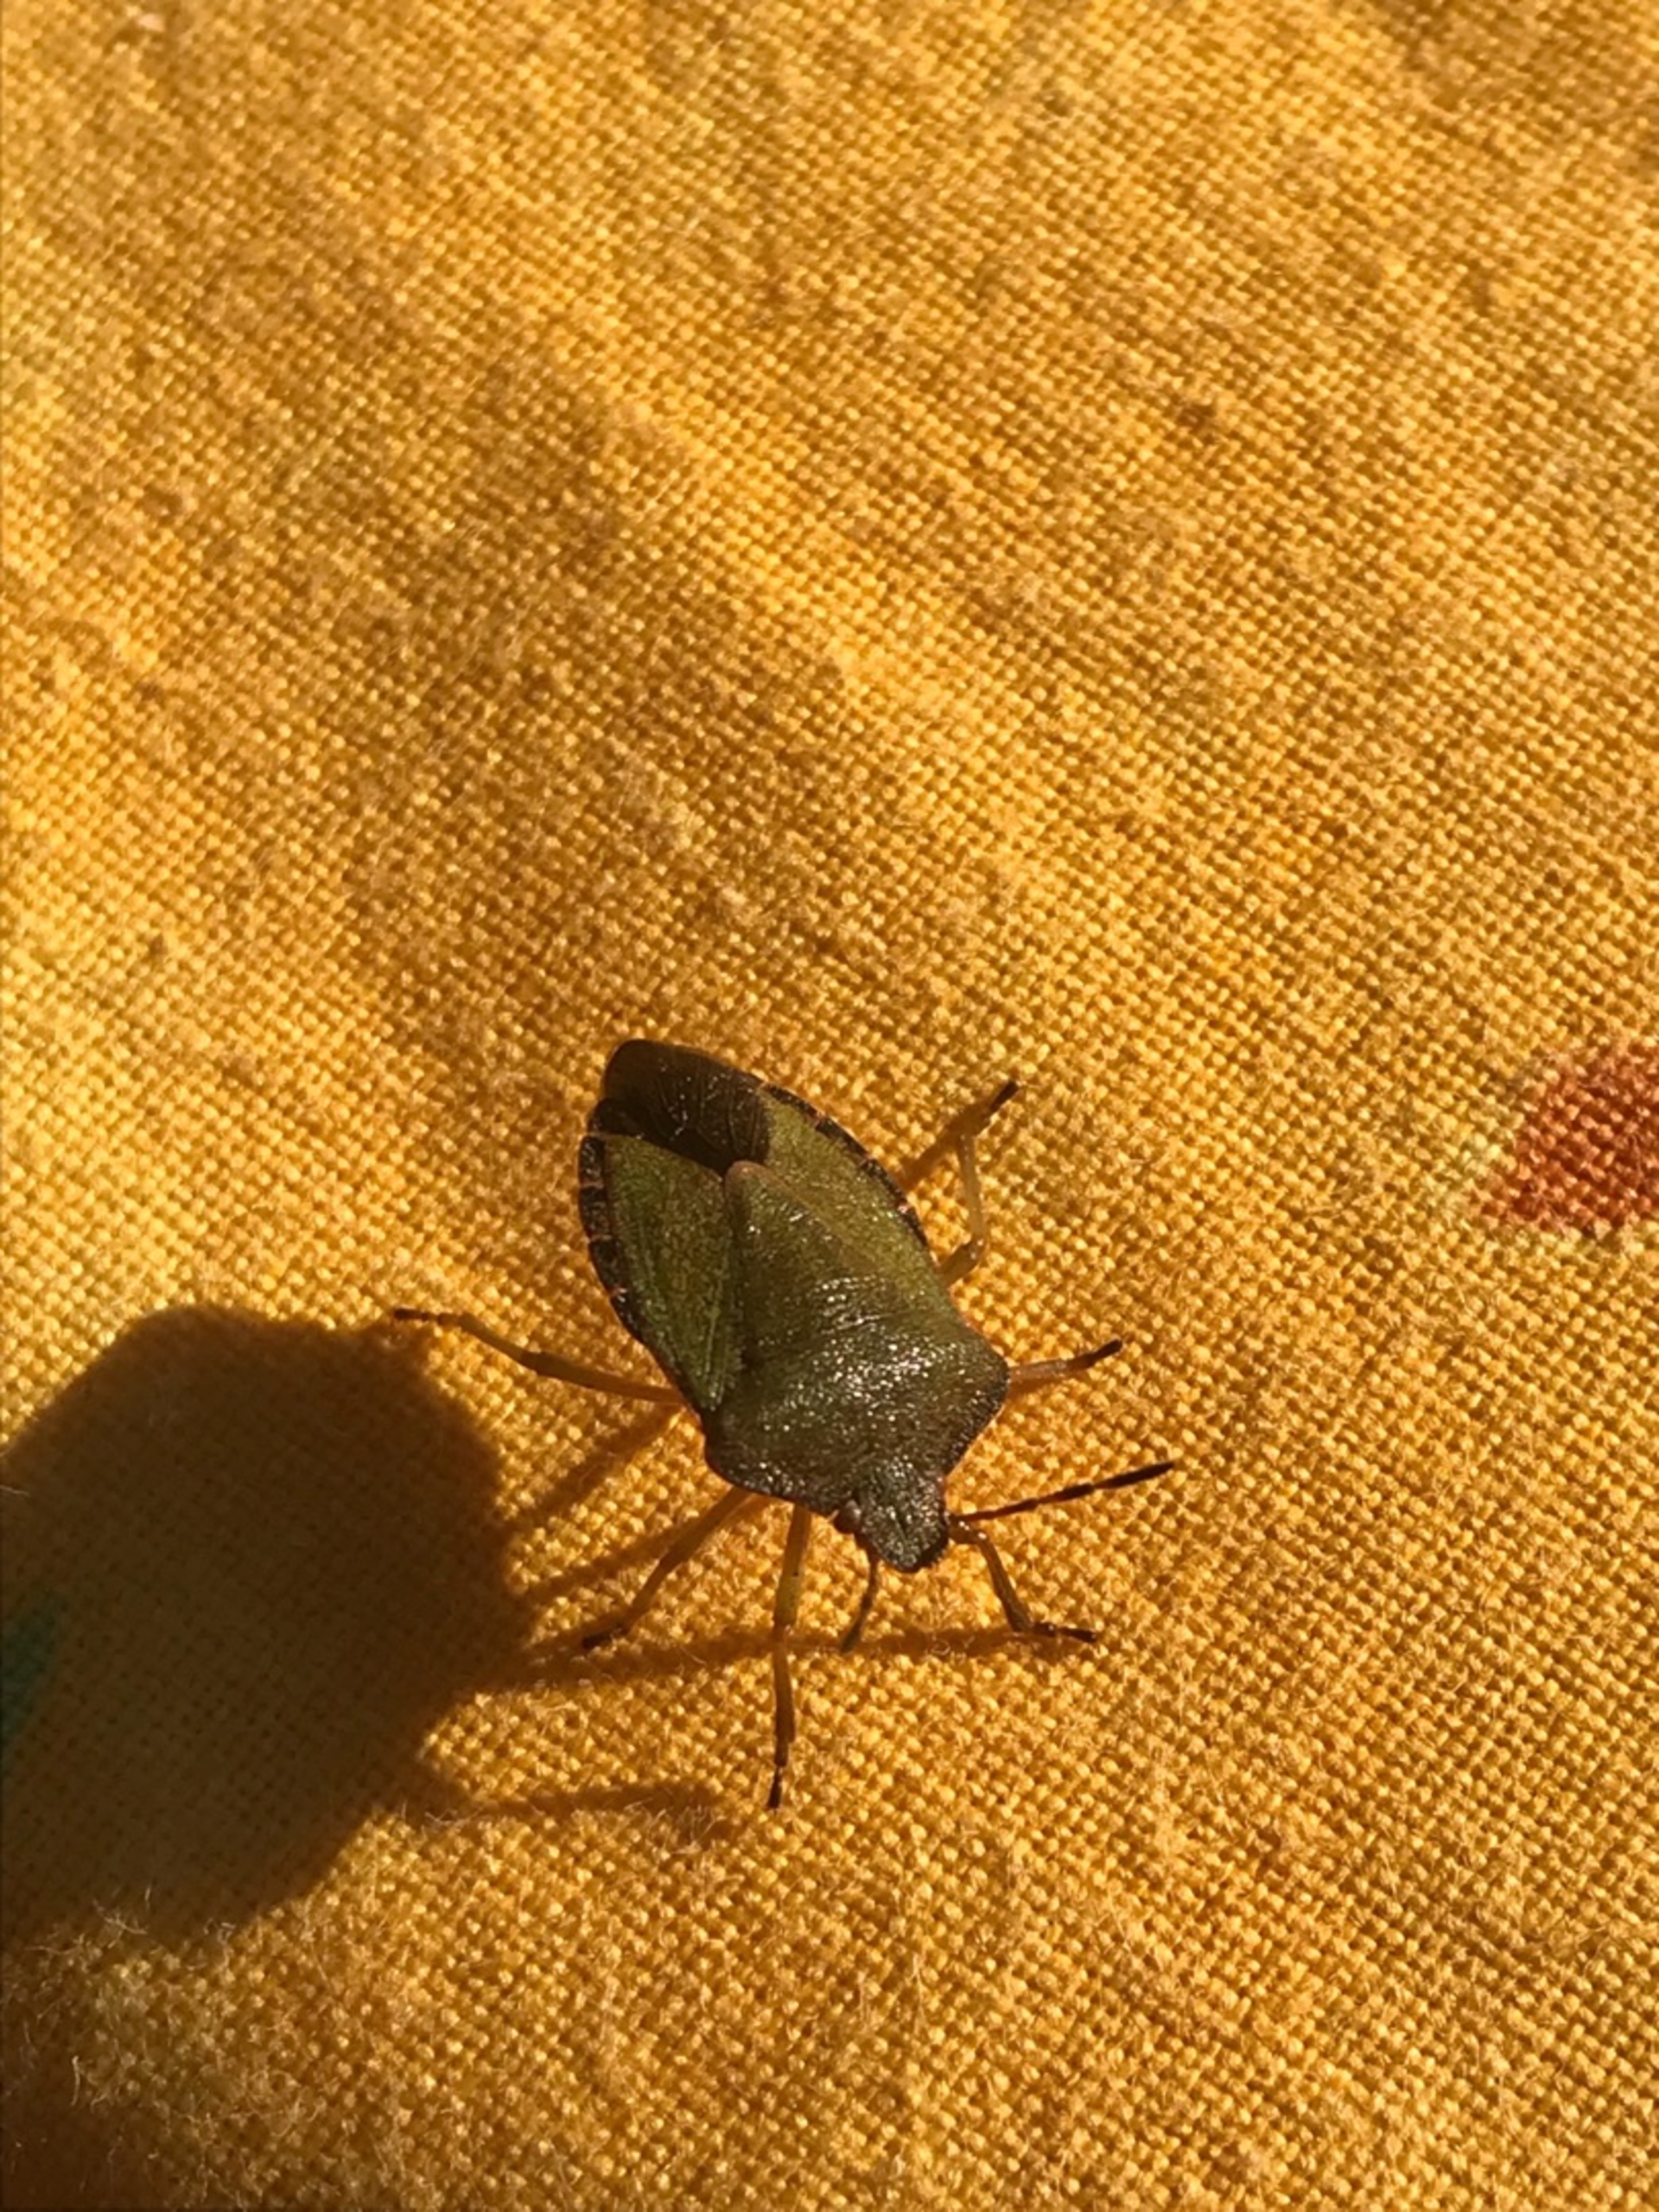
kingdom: Animalia
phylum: Arthropoda
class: Insecta
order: Hemiptera
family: Pentatomidae
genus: Palomena
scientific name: Palomena prasina
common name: Grøn bredtæge
